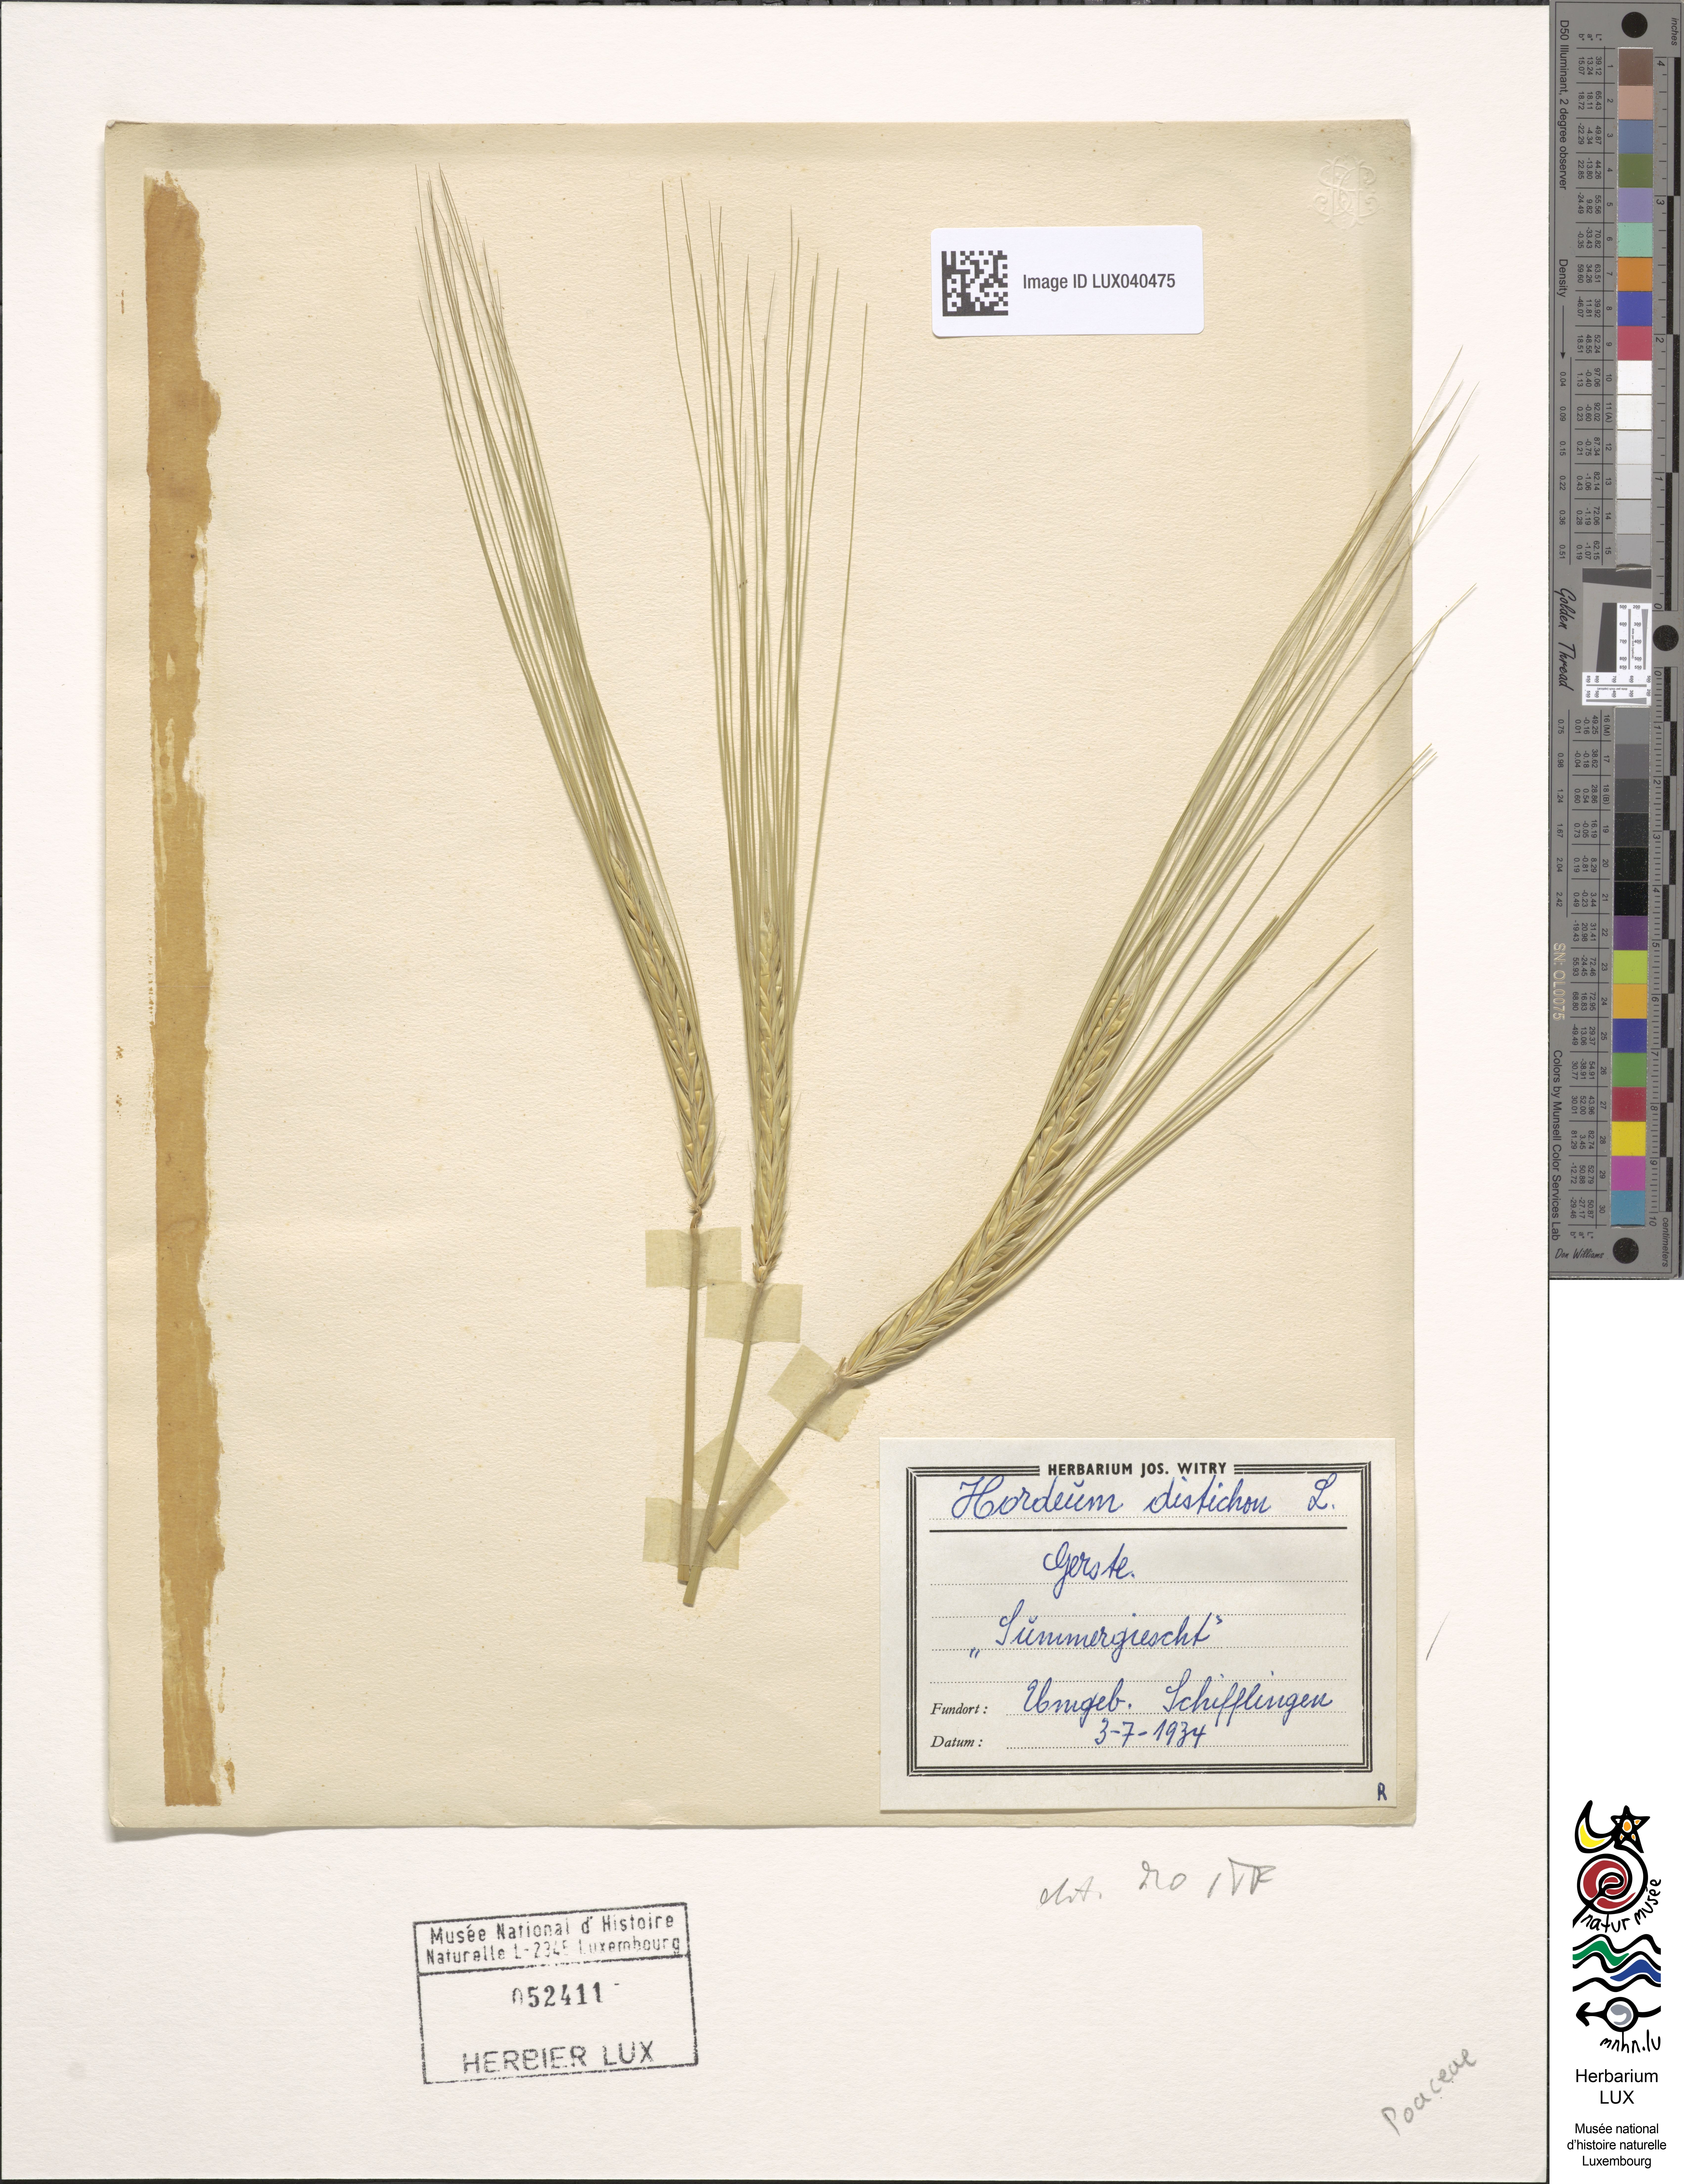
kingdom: Plantae
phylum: Tracheophyta
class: Liliopsida
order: Poales
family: Poaceae
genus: Hordeum
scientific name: Hordeum distichon
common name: Two-rowed barley
